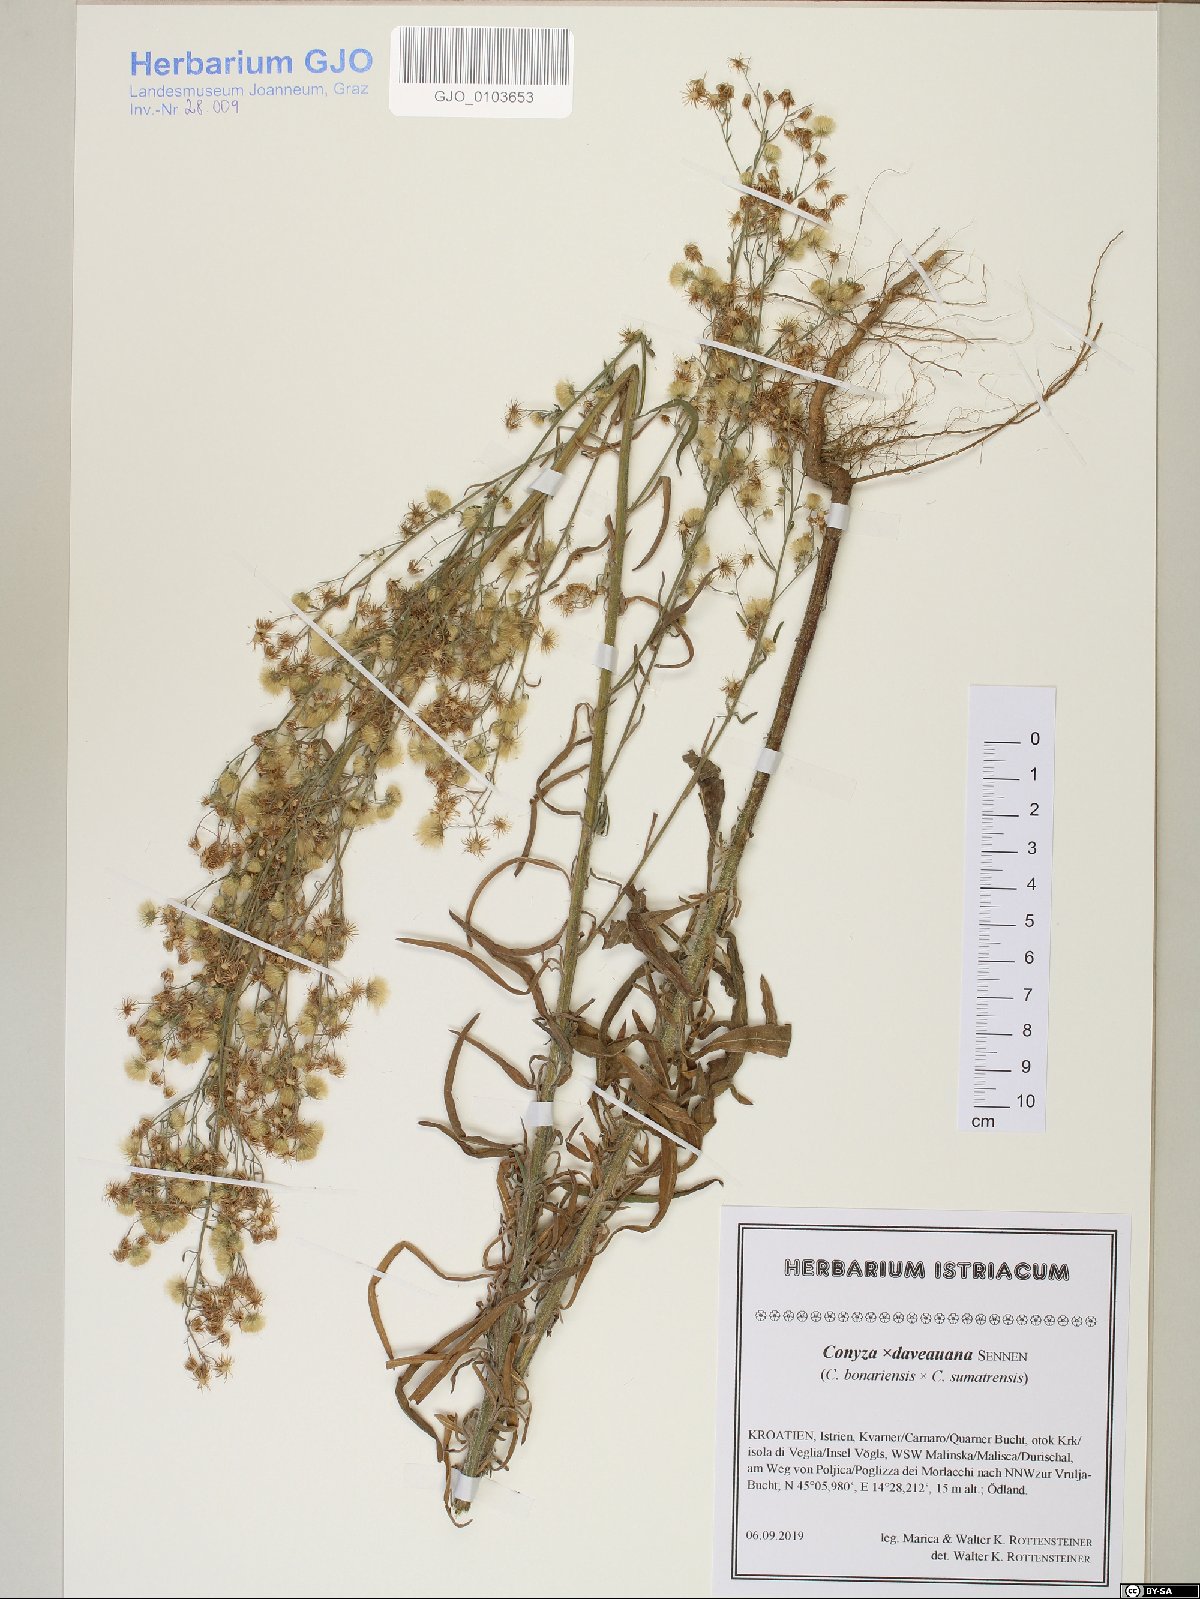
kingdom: Plantae
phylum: Tracheophyta
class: Magnoliopsida
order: Asterales
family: Asteraceae
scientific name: Asteraceae
